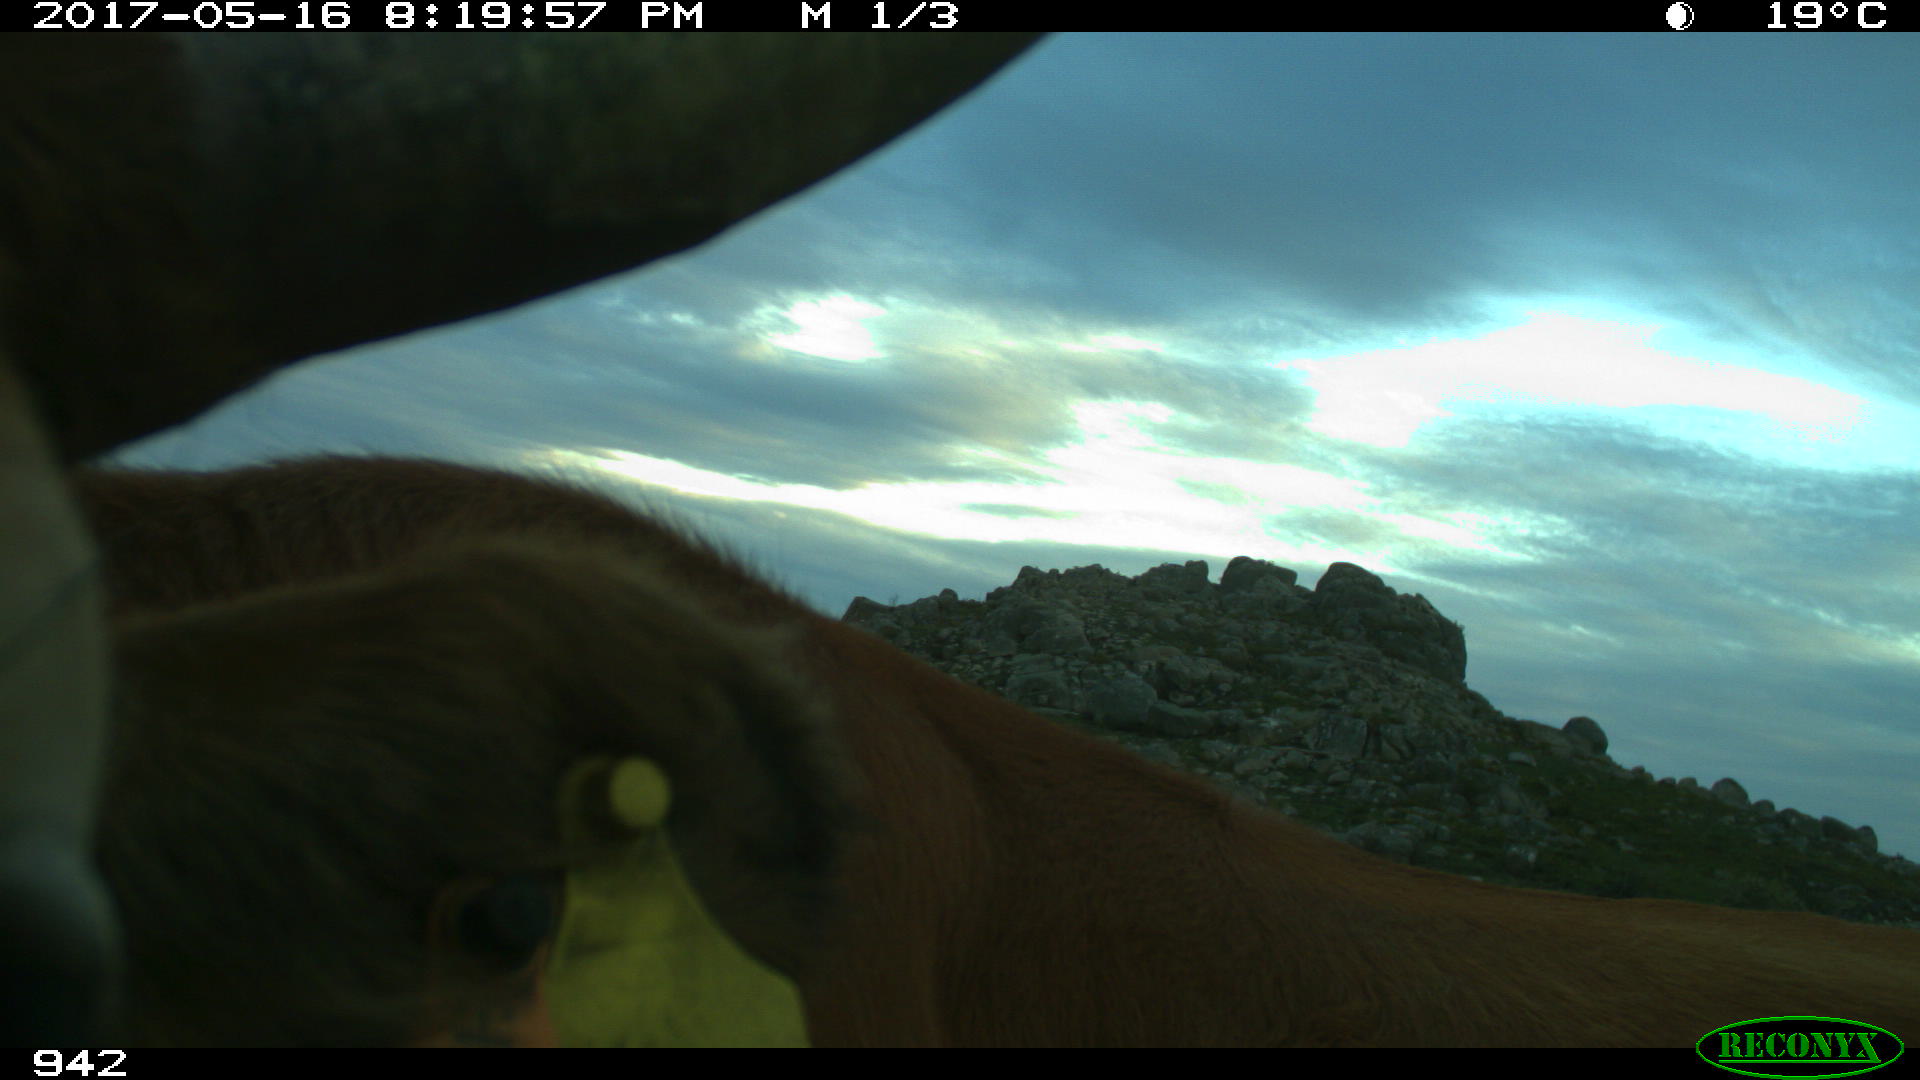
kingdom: Animalia
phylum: Chordata
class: Mammalia
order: Artiodactyla
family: Bovidae
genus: Bos
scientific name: Bos taurus
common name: Domesticated cattle
